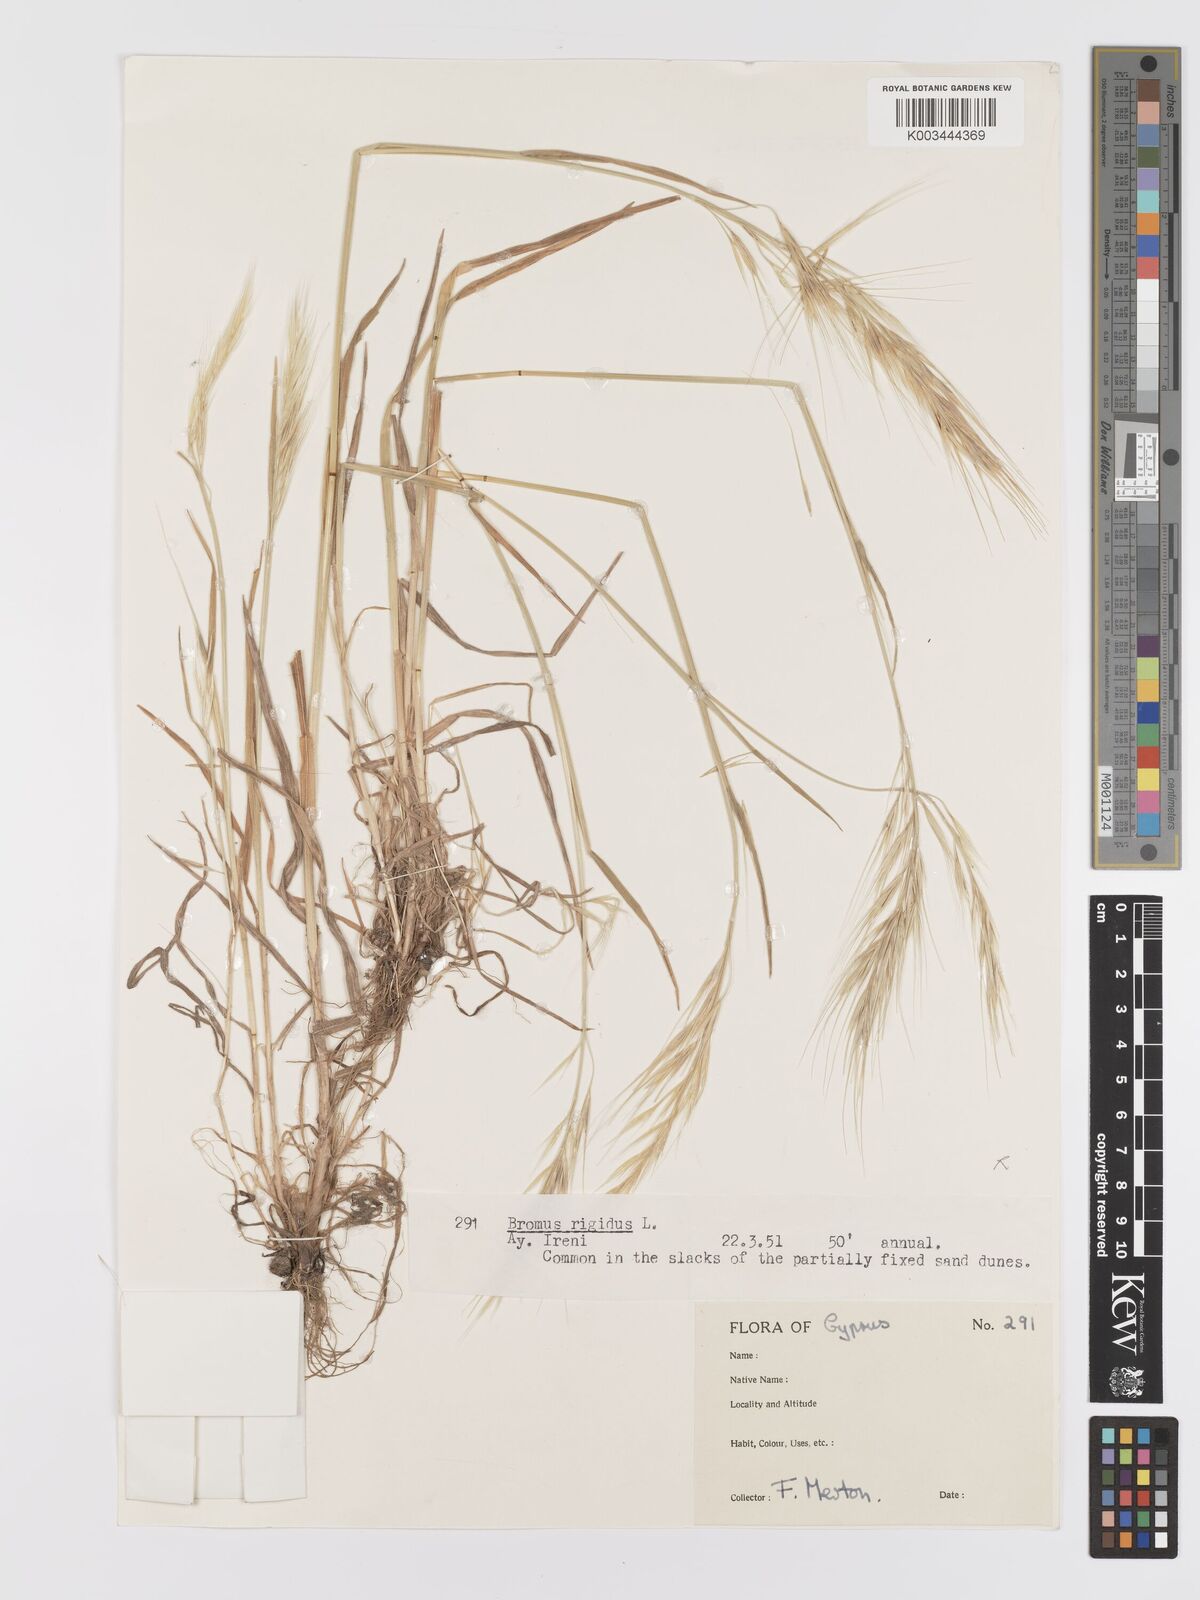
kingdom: Plantae
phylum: Tracheophyta
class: Liliopsida
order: Poales
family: Poaceae
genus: Bromus
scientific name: Bromus
